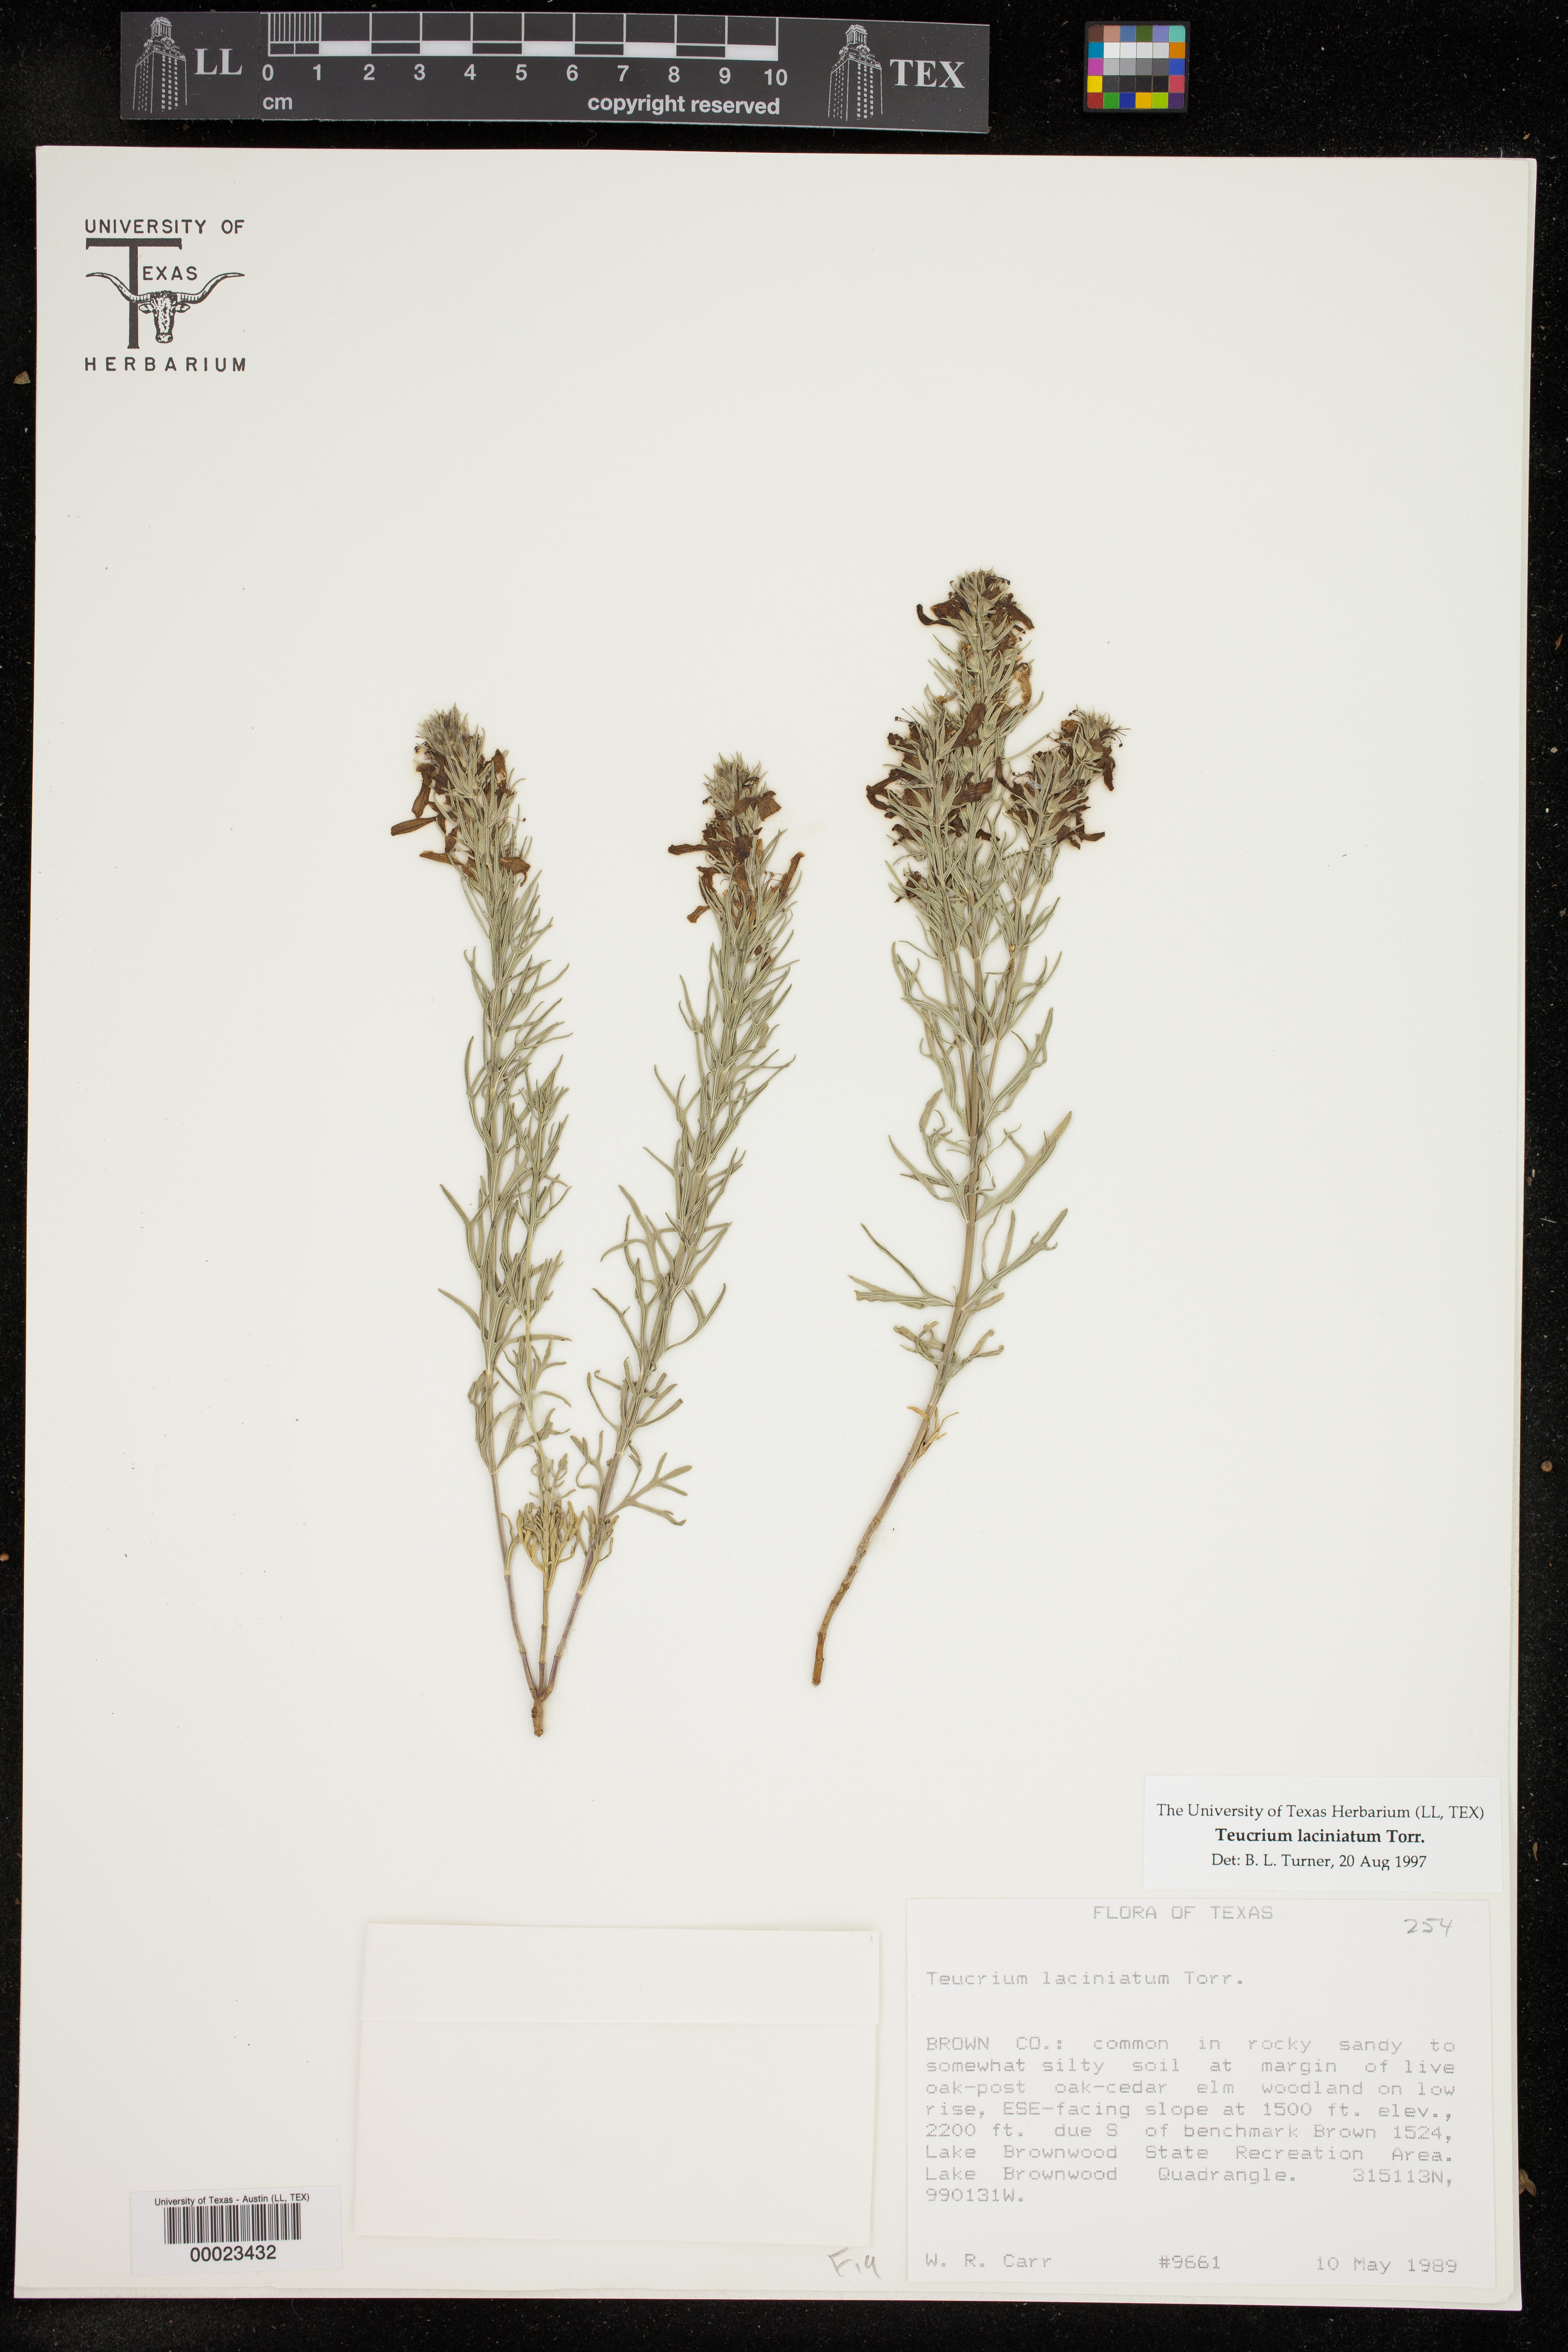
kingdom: Plantae
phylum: Tracheophyta
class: Magnoliopsida
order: Lamiales
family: Lamiaceae
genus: Teucrium
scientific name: Teucrium laciniatum
